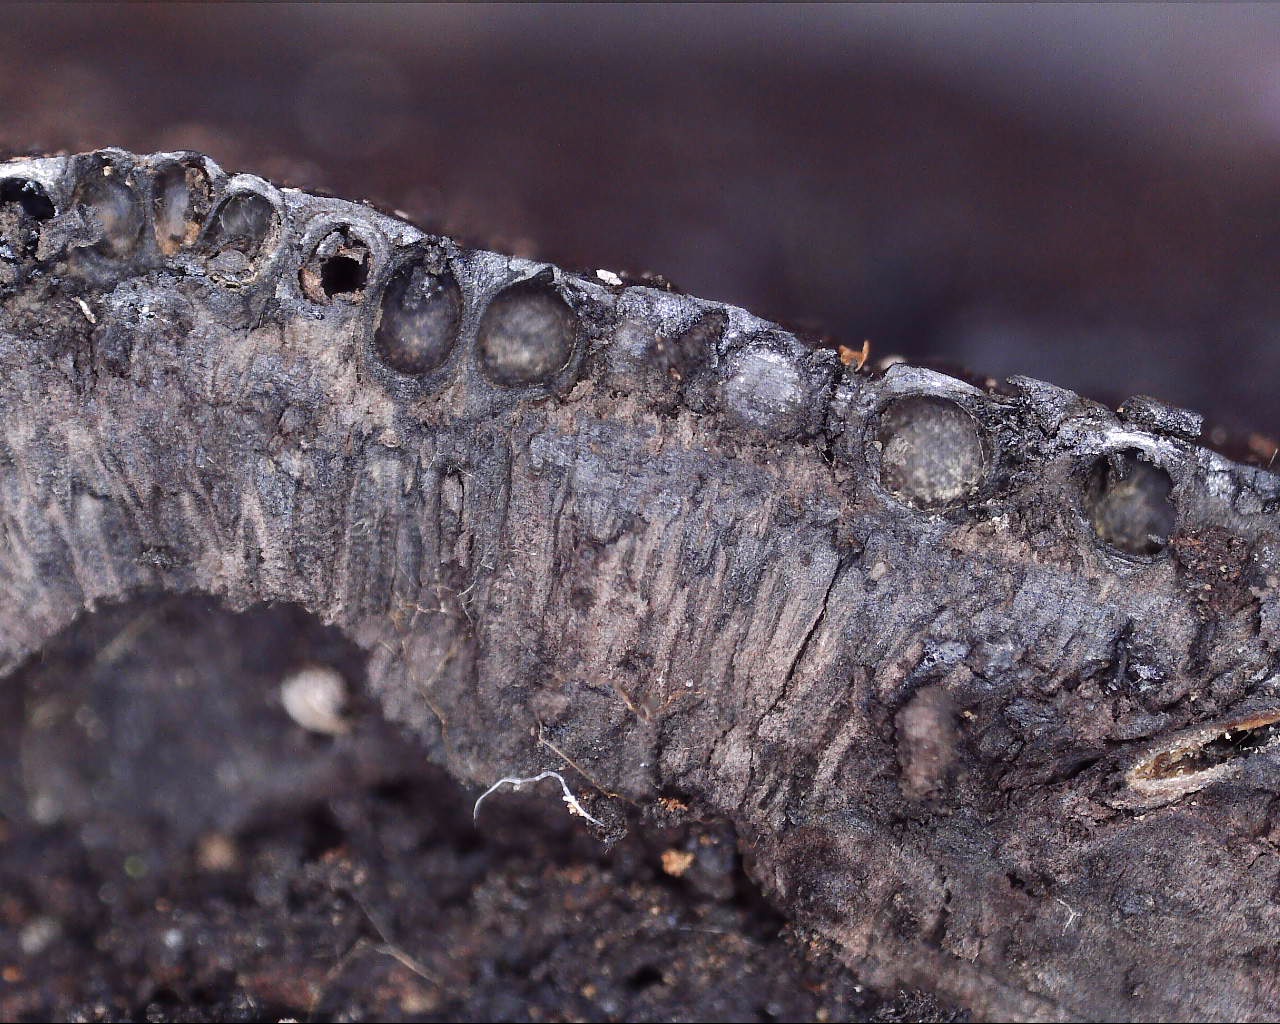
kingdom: Fungi
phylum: Ascomycota
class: Sordariomycetes
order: Xylariales
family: Hypoxylaceae
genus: Jackrogersella
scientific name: Jackrogersella cohaerens
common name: sammenflydende kulbær
